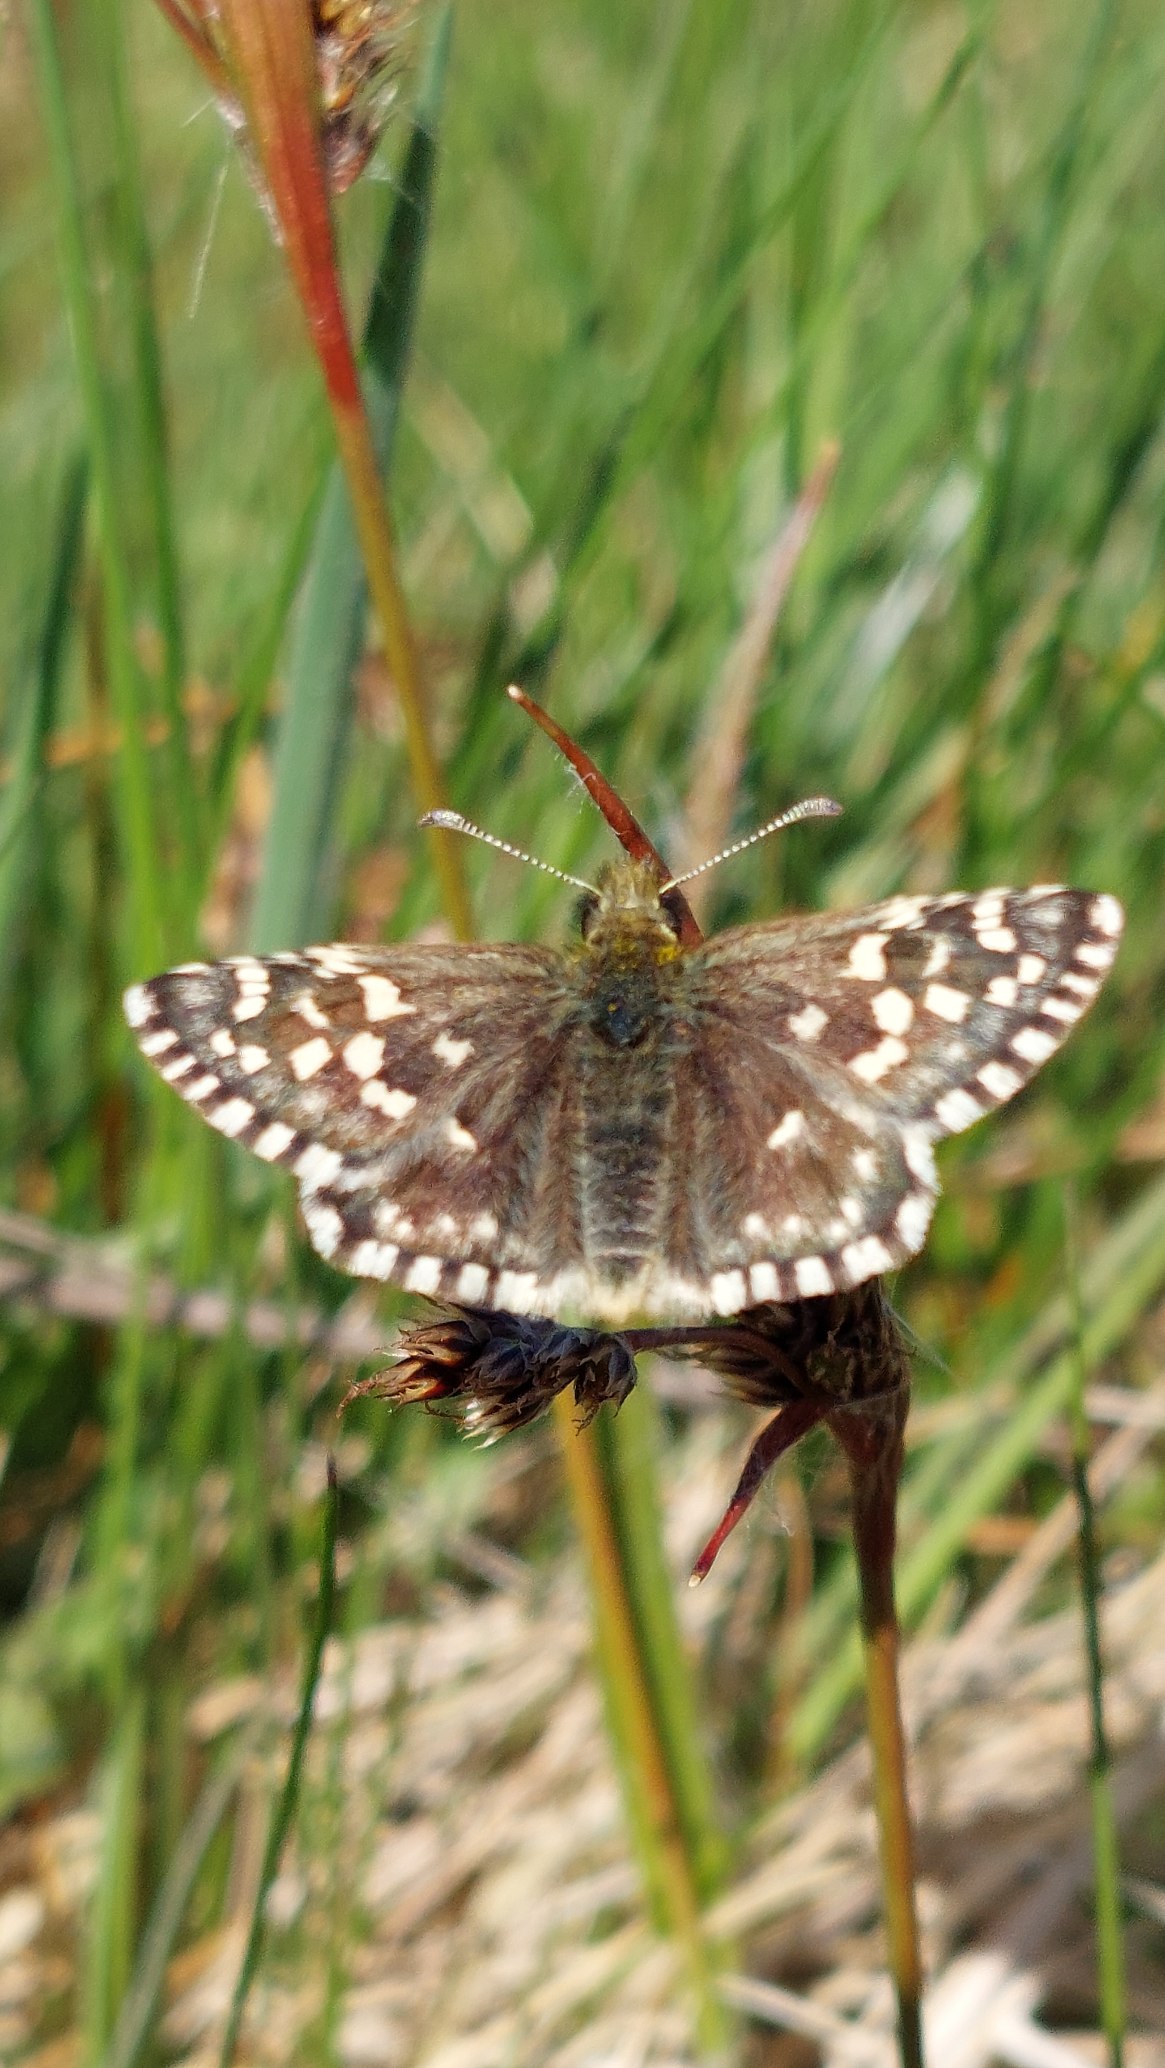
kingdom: Animalia
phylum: Arthropoda
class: Insecta
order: Lepidoptera
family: Hesperiidae
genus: Pyrgus
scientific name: Pyrgus malvae
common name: Spættet bredpande
